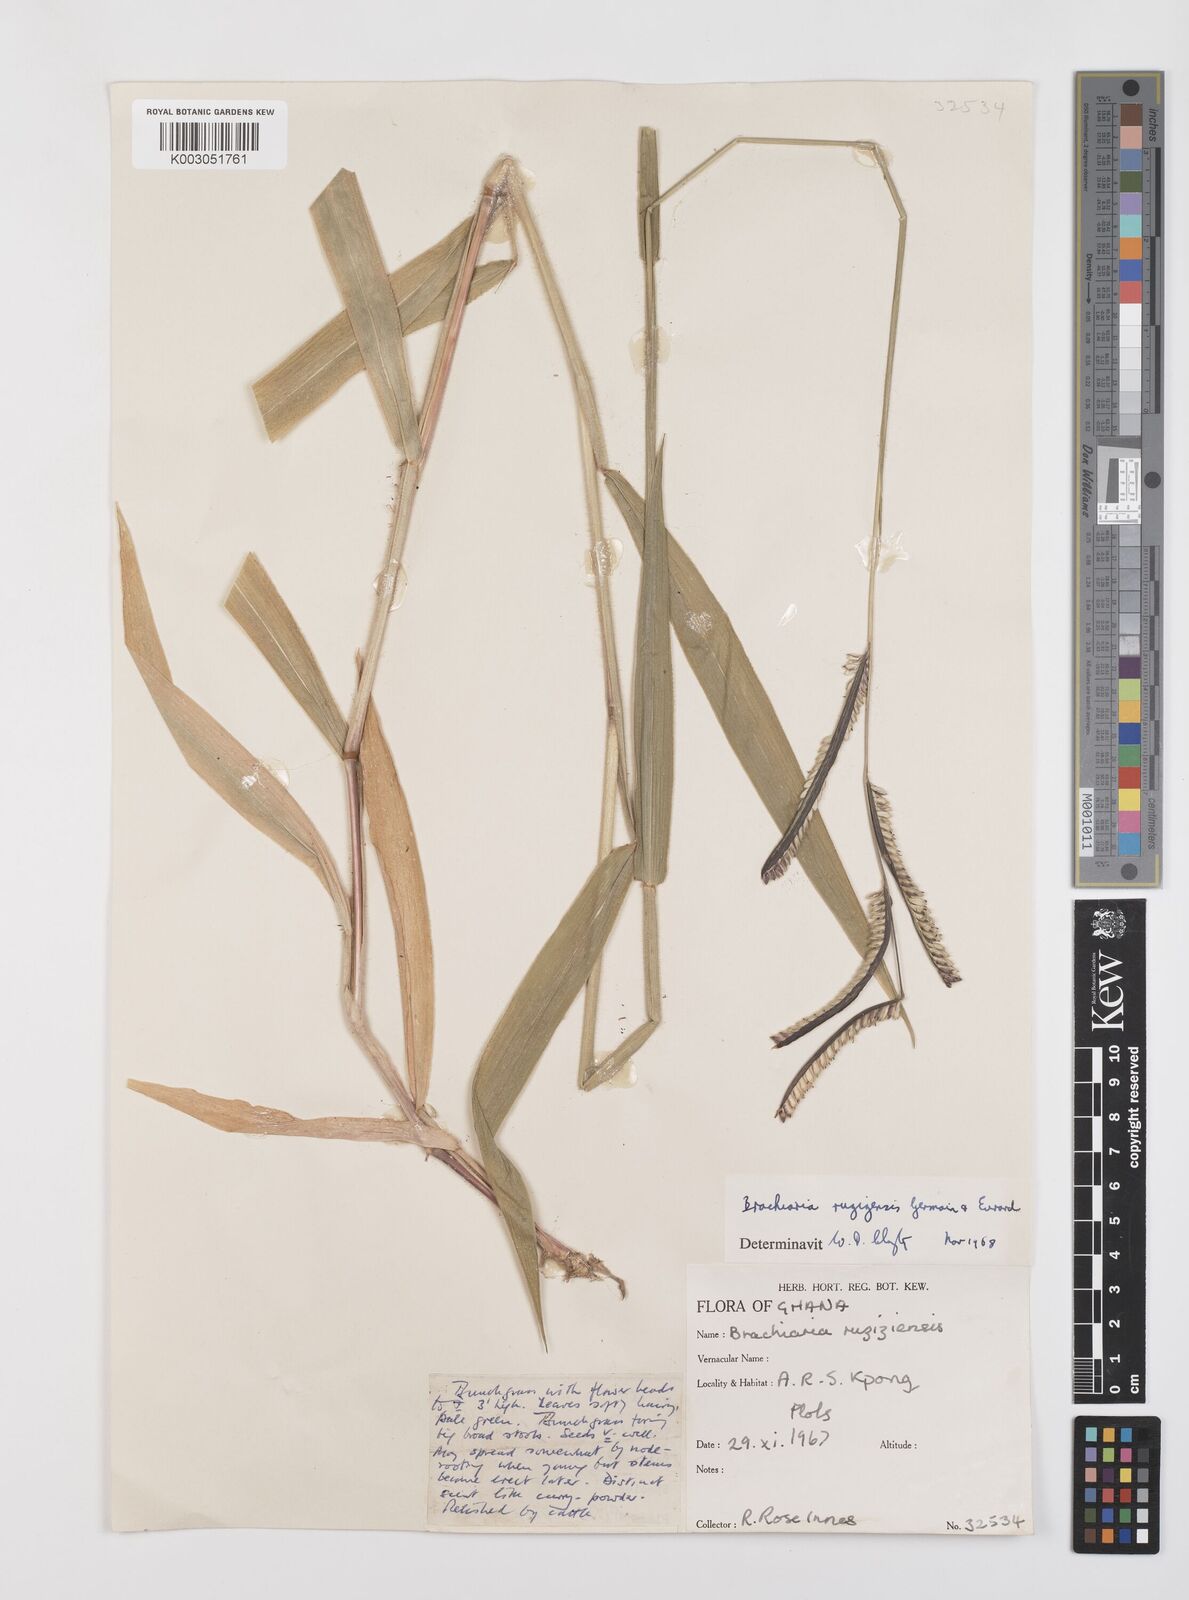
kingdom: Plantae
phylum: Tracheophyta
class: Liliopsida
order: Poales
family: Poaceae
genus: Urochloa
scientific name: Urochloa eminii
